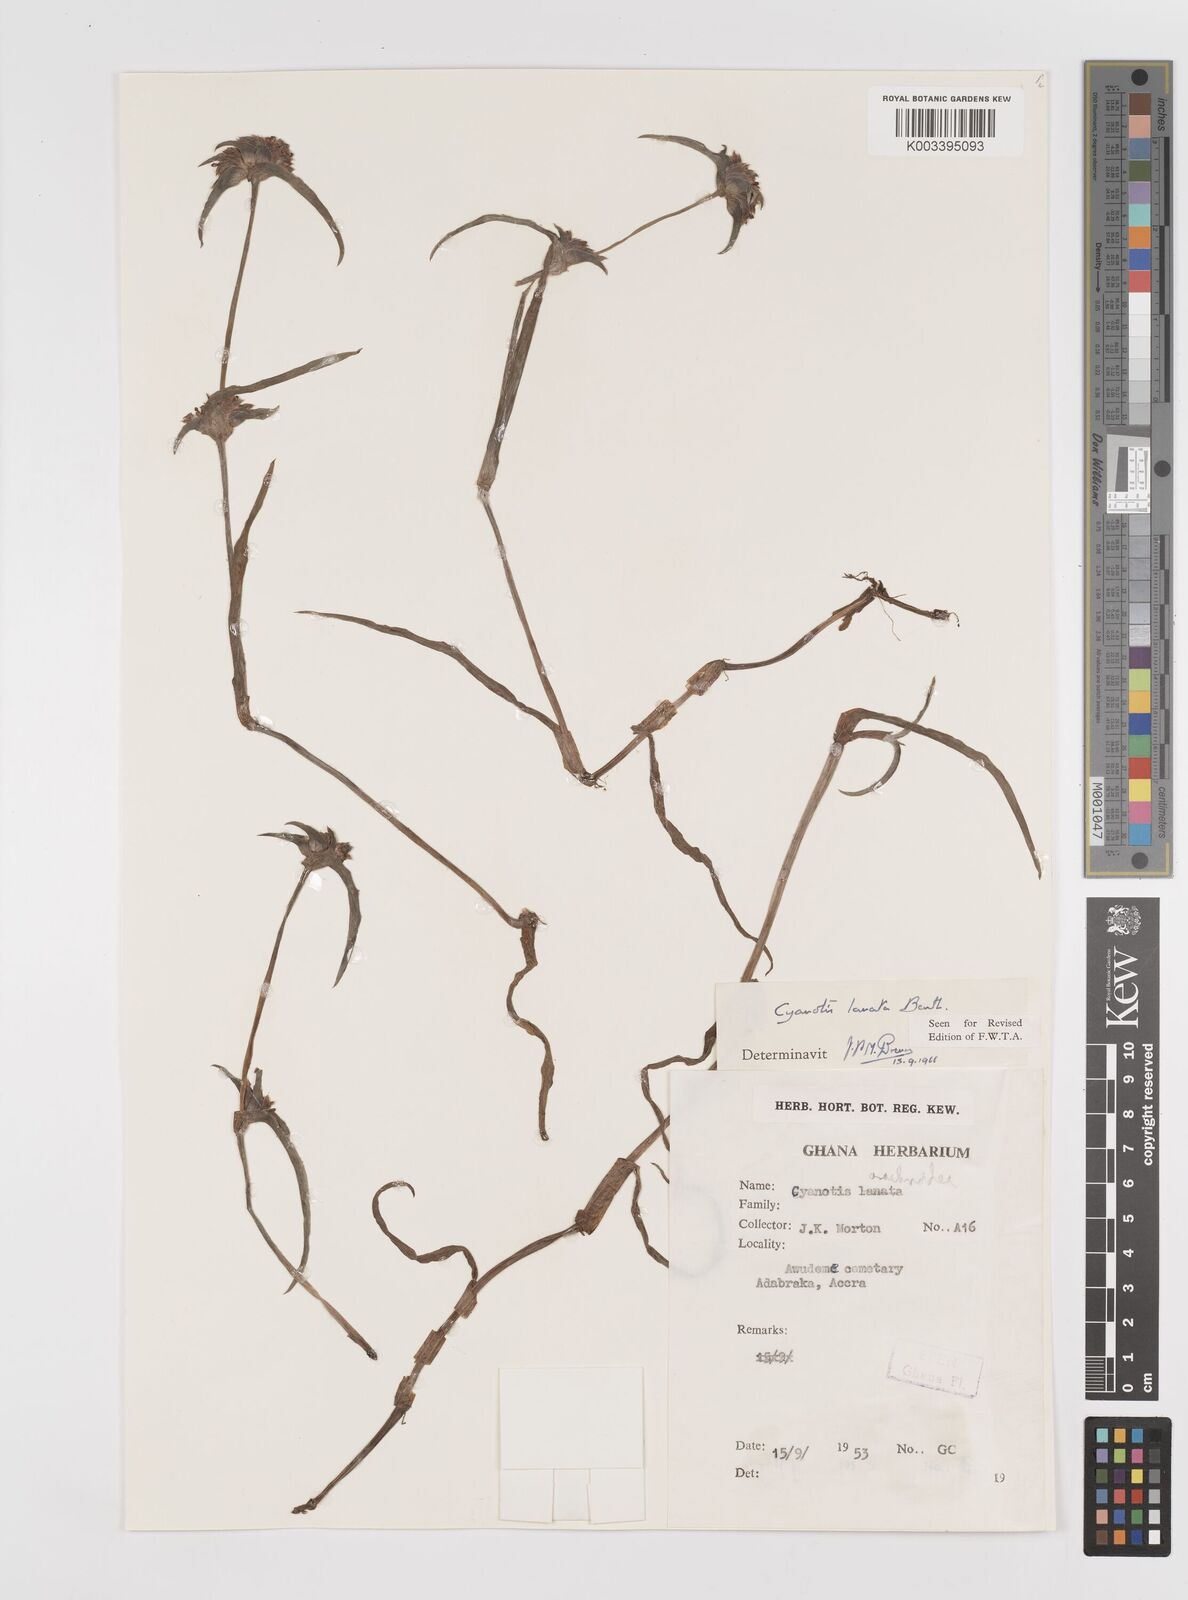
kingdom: Plantae
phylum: Tracheophyta
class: Liliopsida
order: Commelinales
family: Commelinaceae
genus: Cyanotis
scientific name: Cyanotis lanata
